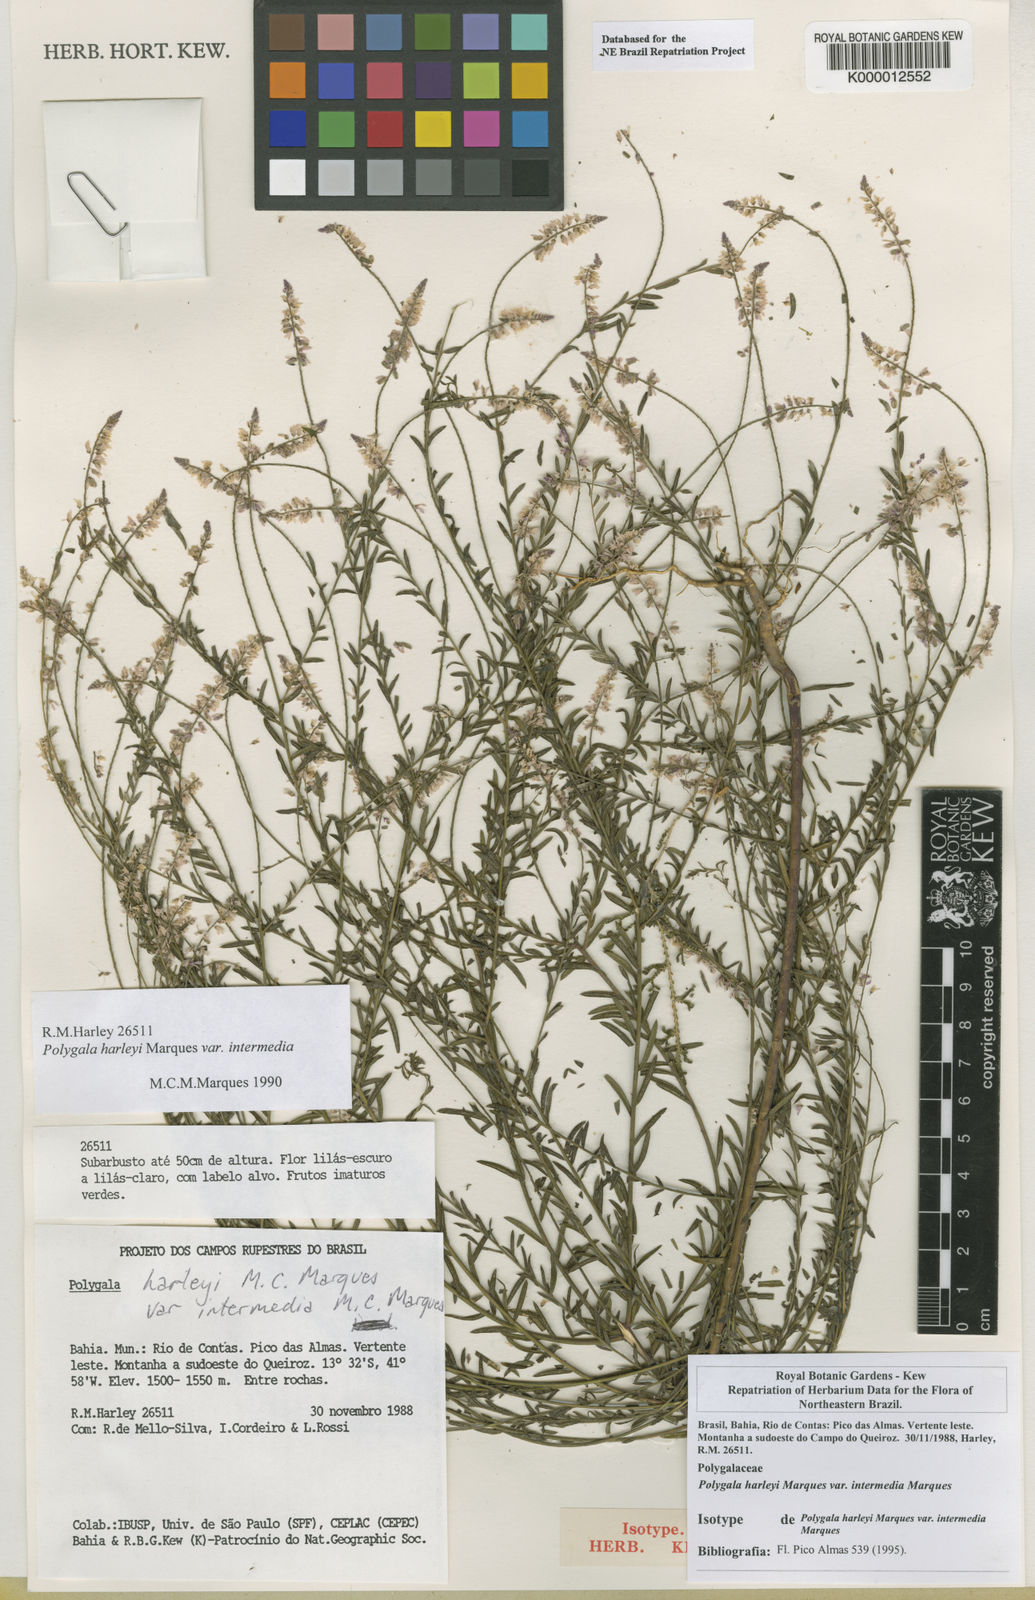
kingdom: Plantae
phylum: Tracheophyta
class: Magnoliopsida
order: Fabales
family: Polygalaceae
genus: Polygala
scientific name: Polygala
